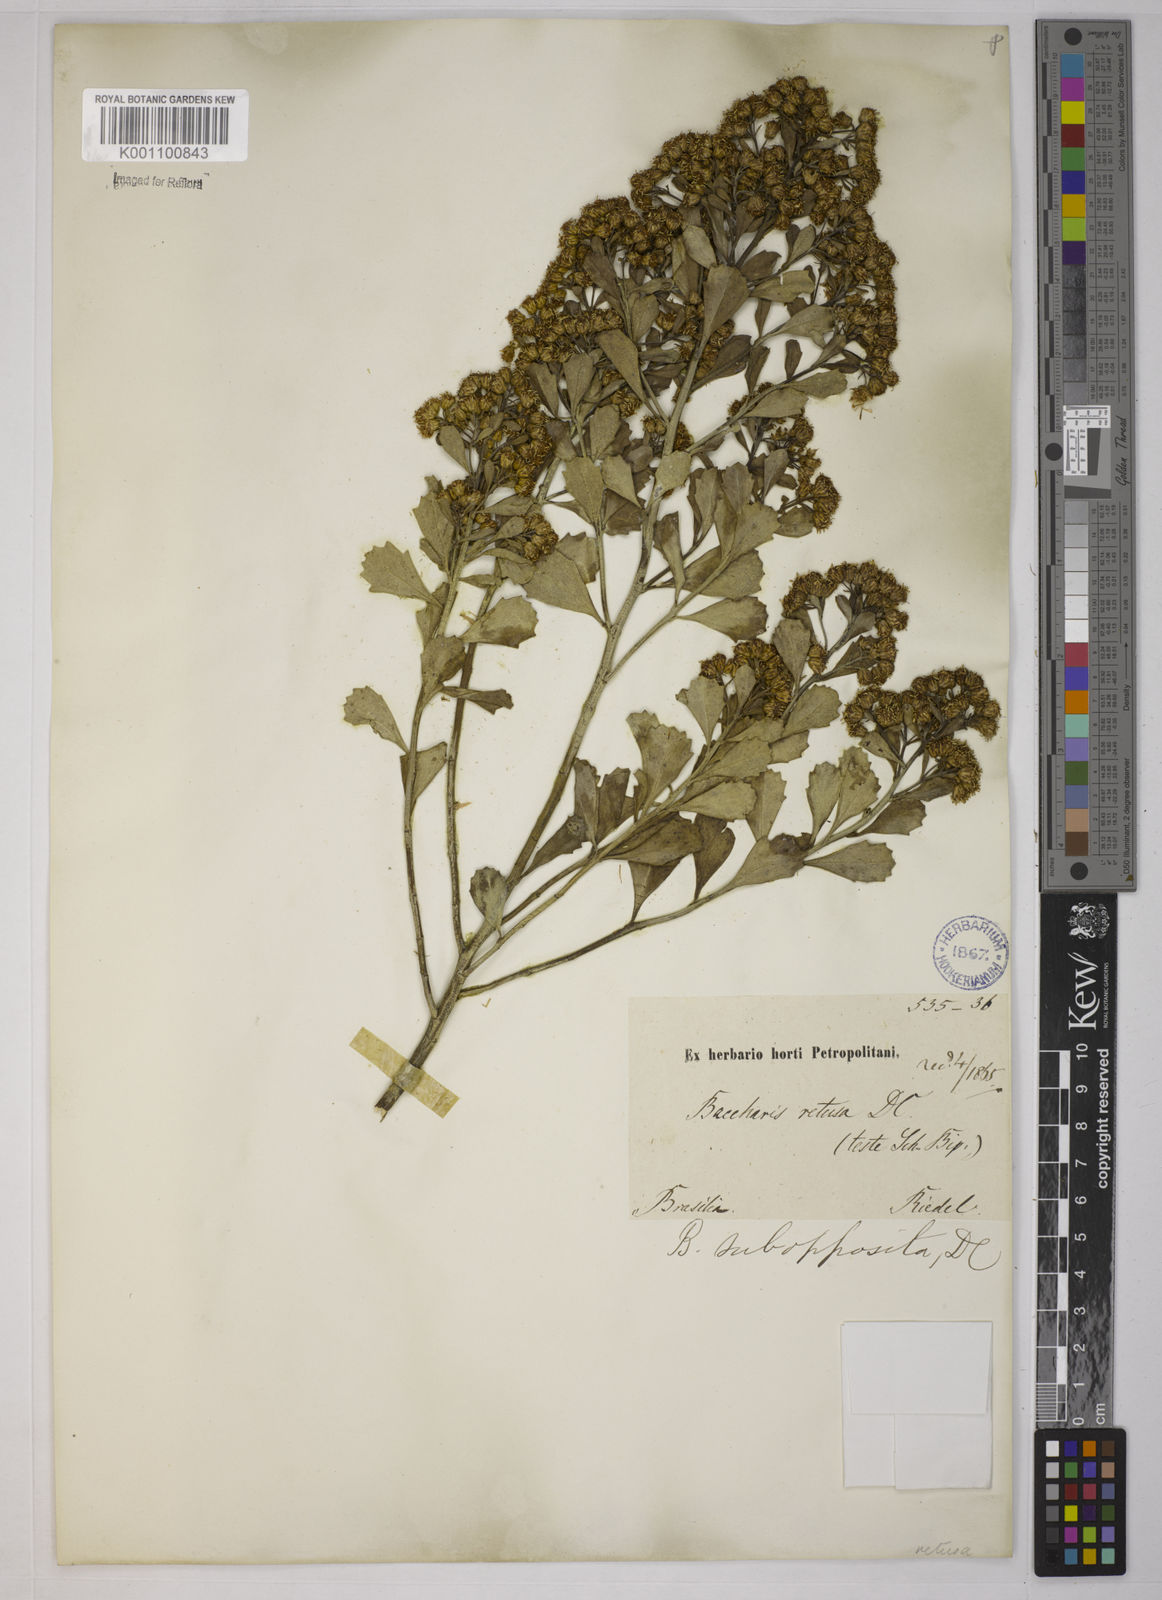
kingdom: Plantae
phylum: Tracheophyta
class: Magnoliopsida
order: Asterales
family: Asteraceae
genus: Baccharis
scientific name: Baccharis subopposita
